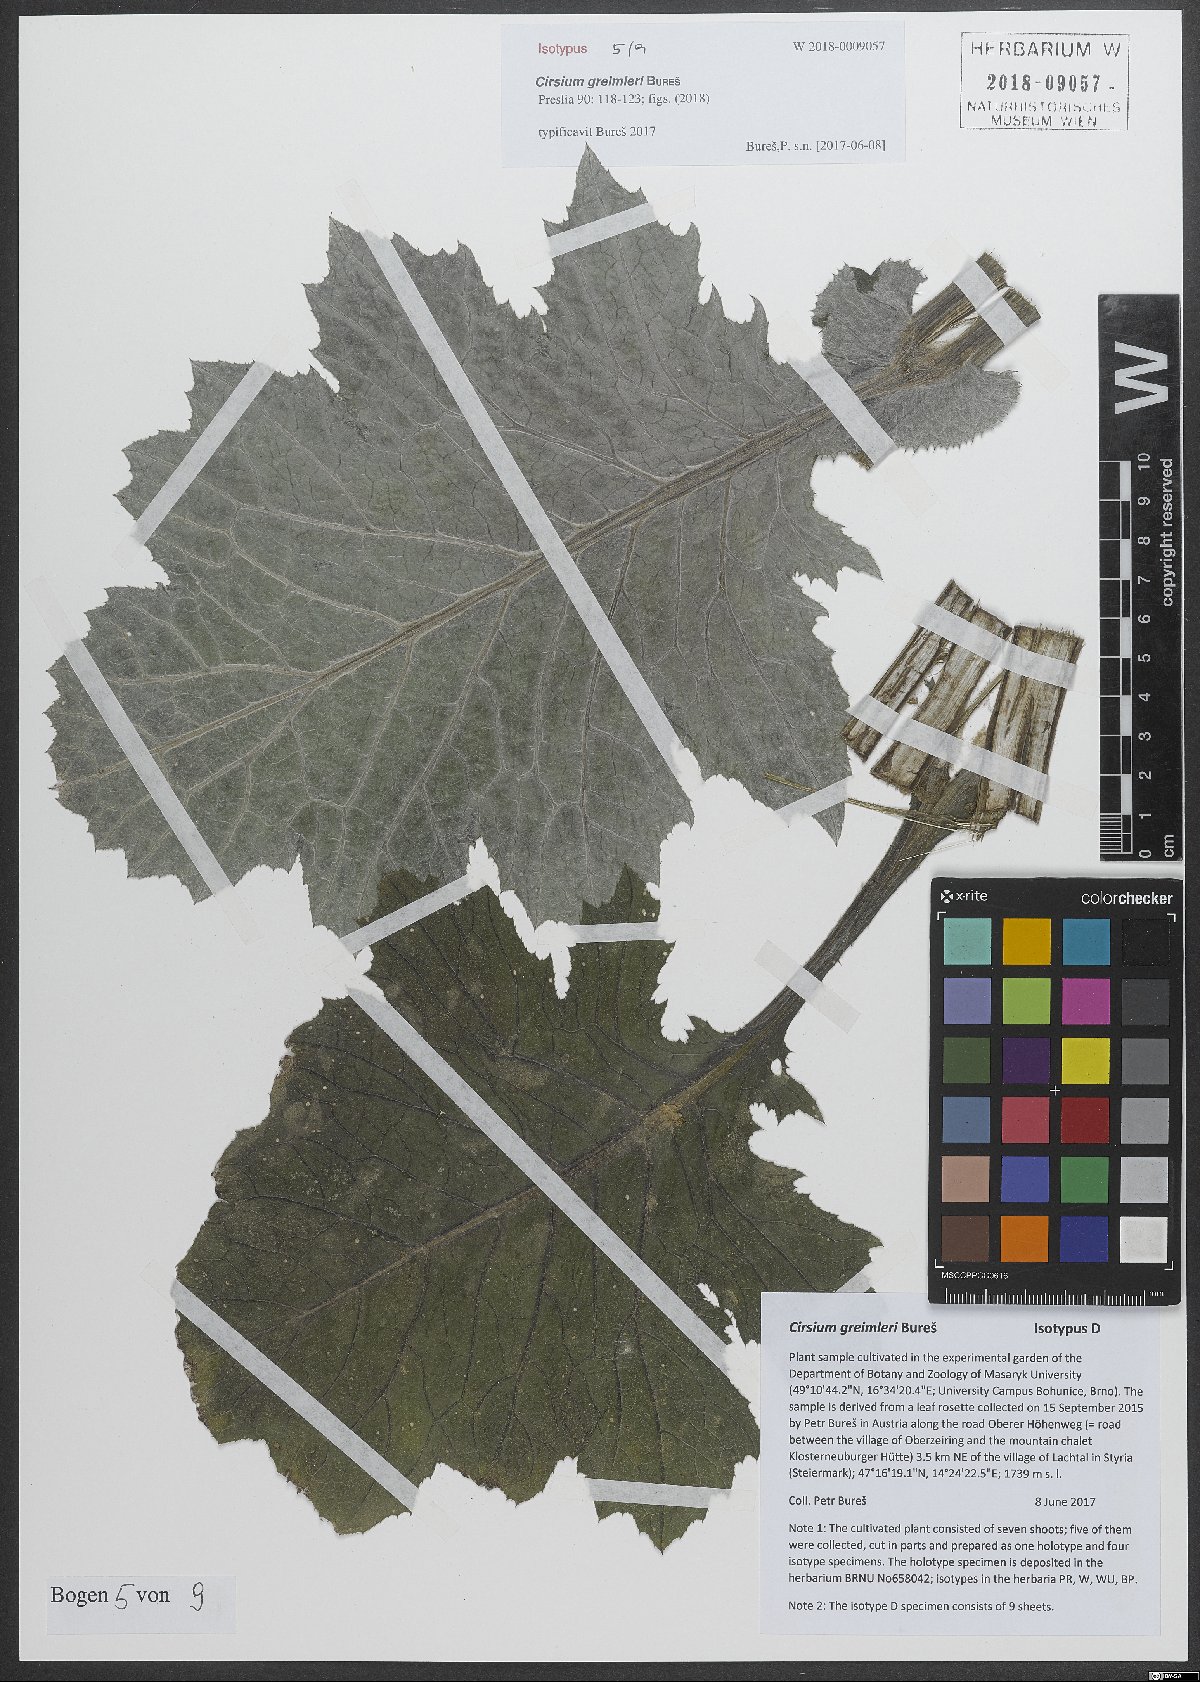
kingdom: Plantae
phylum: Tracheophyta
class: Magnoliopsida
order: Asterales
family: Asteraceae
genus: Cirsium
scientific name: Cirsium greimleri
